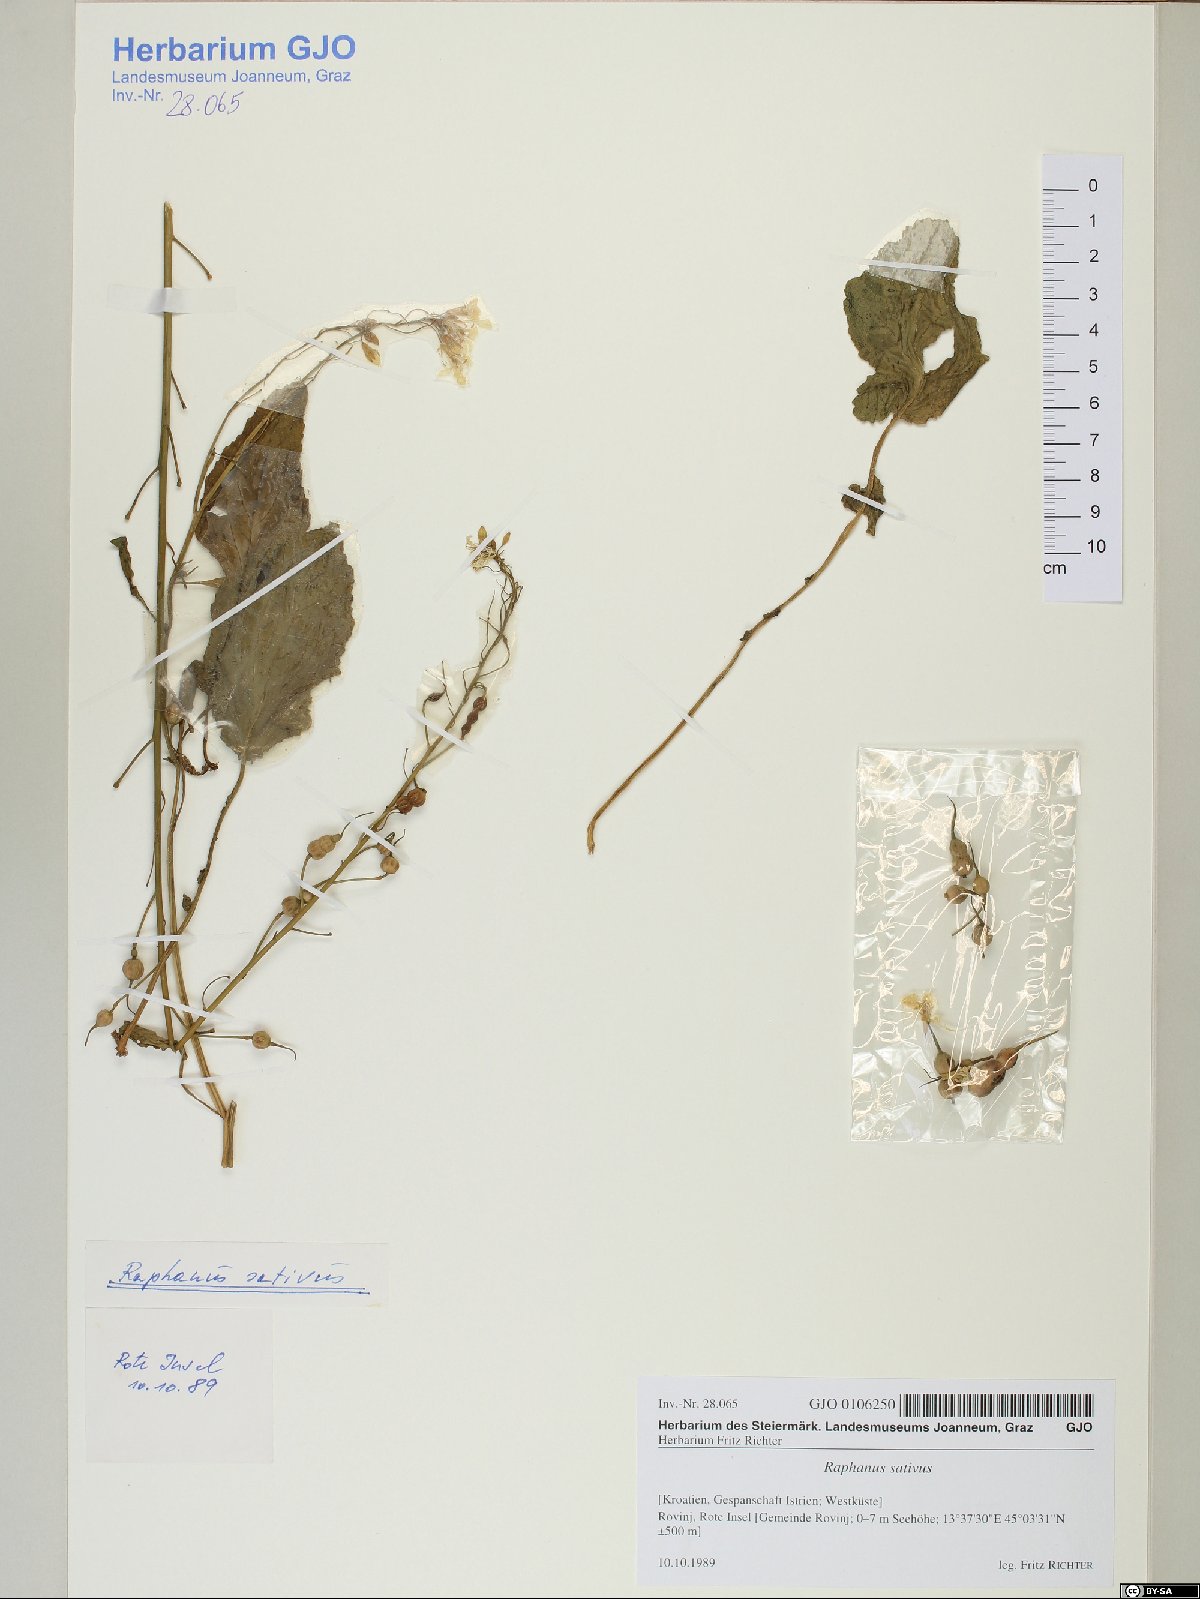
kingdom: Plantae
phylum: Tracheophyta
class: Magnoliopsida
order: Brassicales
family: Brassicaceae
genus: Raphanus
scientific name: Raphanus raphanistrum
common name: Wild radish
